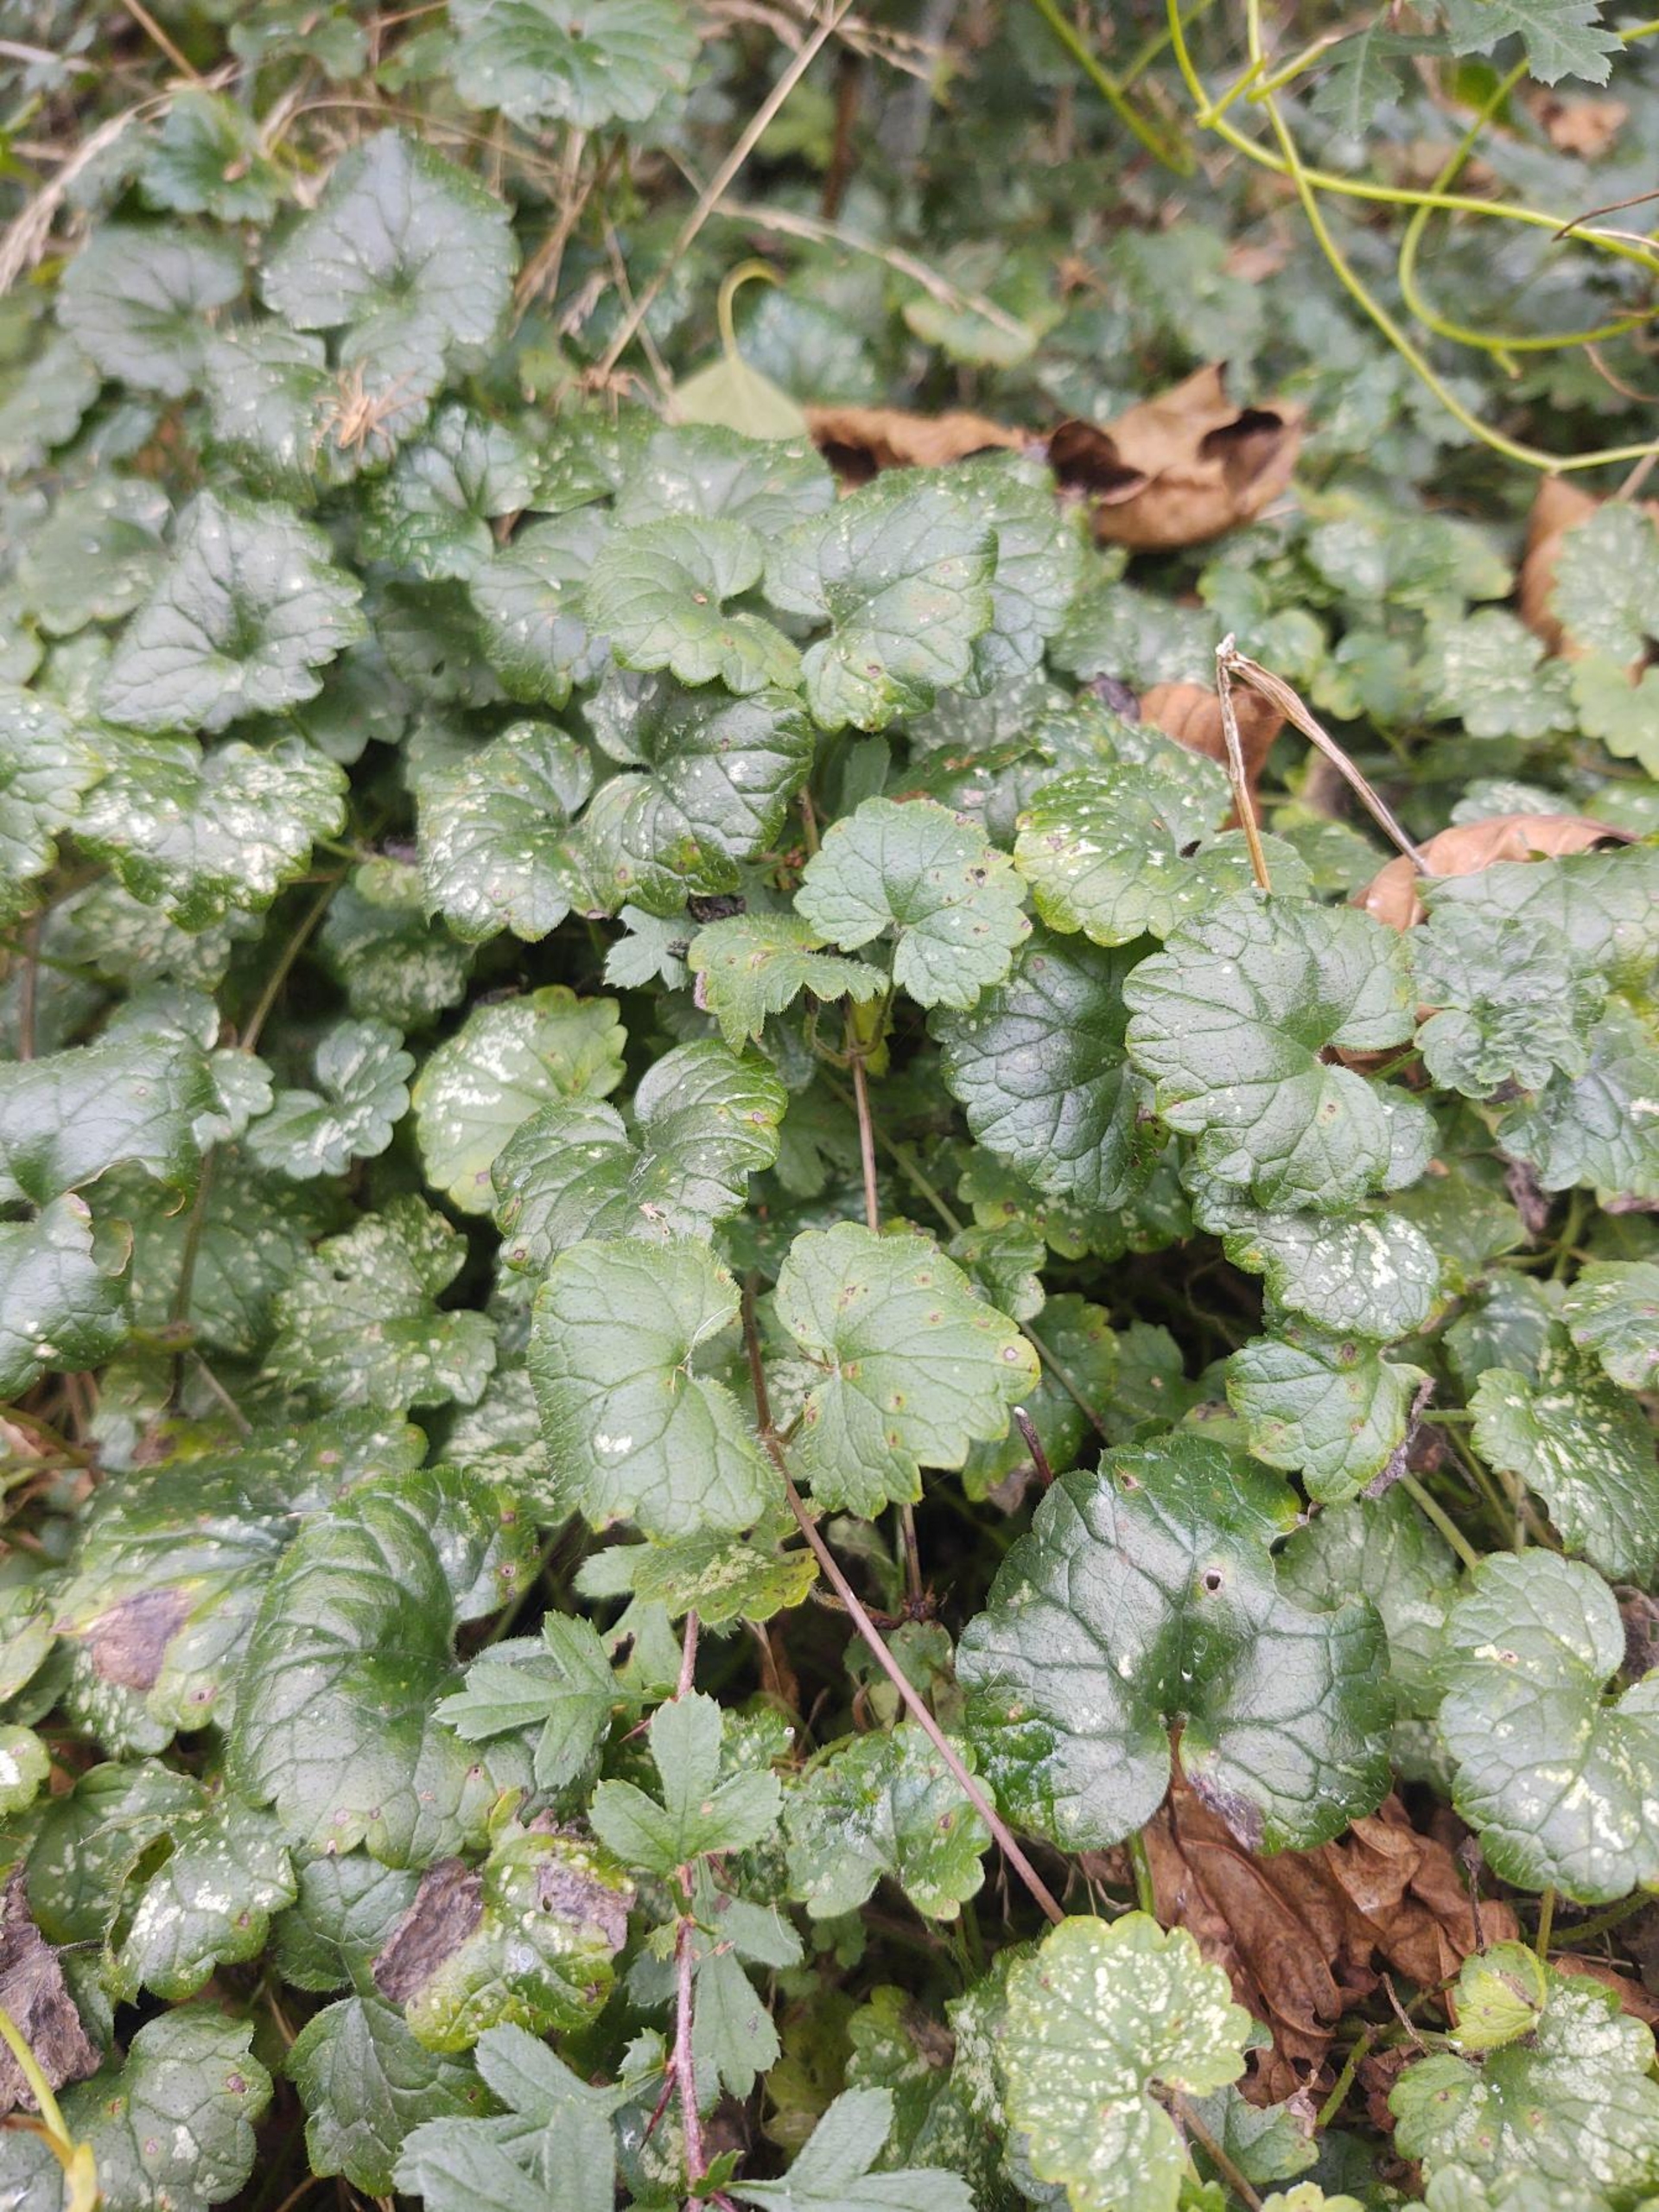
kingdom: Plantae
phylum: Tracheophyta
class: Magnoliopsida
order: Lamiales
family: Lamiaceae
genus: Glechoma
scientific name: Glechoma hederacea
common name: Korsknap
